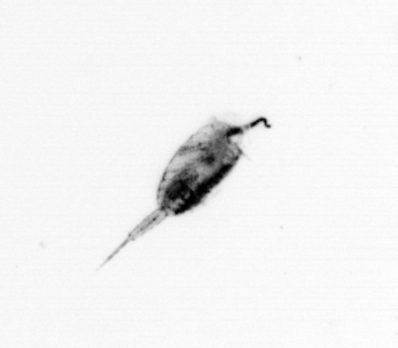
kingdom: Animalia
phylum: Arthropoda
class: Copepoda
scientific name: Copepoda
